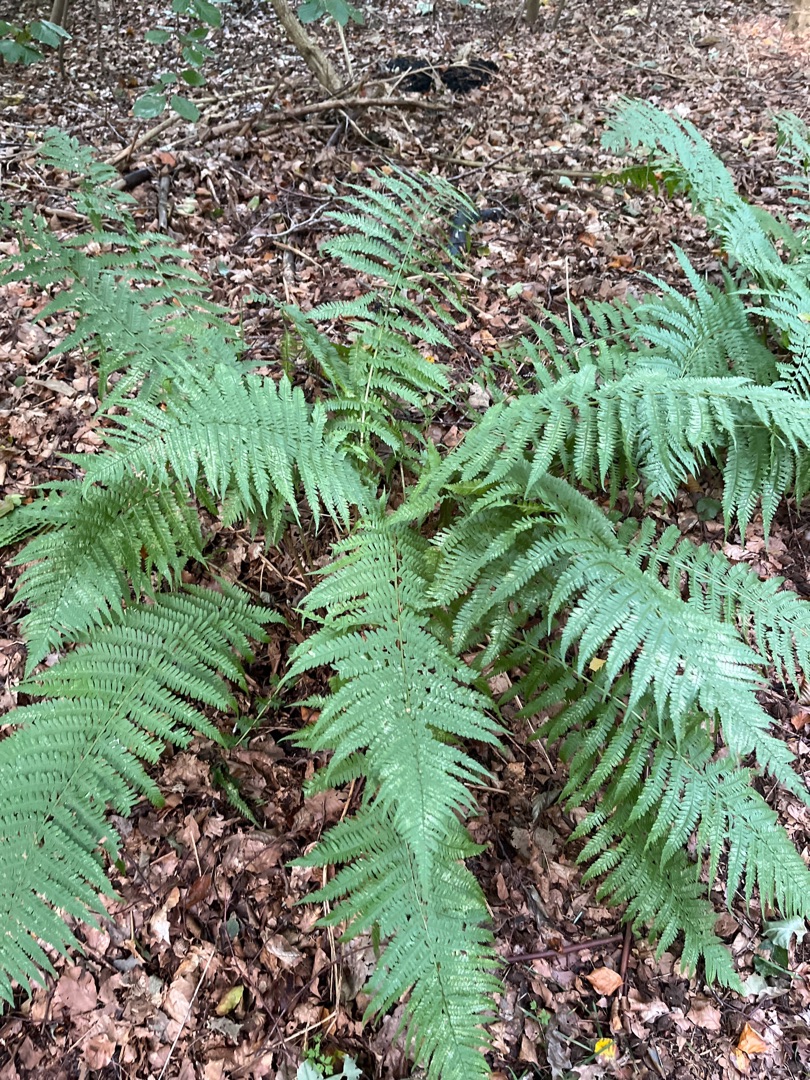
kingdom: Plantae
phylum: Tracheophyta
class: Polypodiopsida
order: Polypodiales
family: Dryopteridaceae
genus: Dryopteris
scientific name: Dryopteris filix-mas
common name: Almindelig mangeløv
